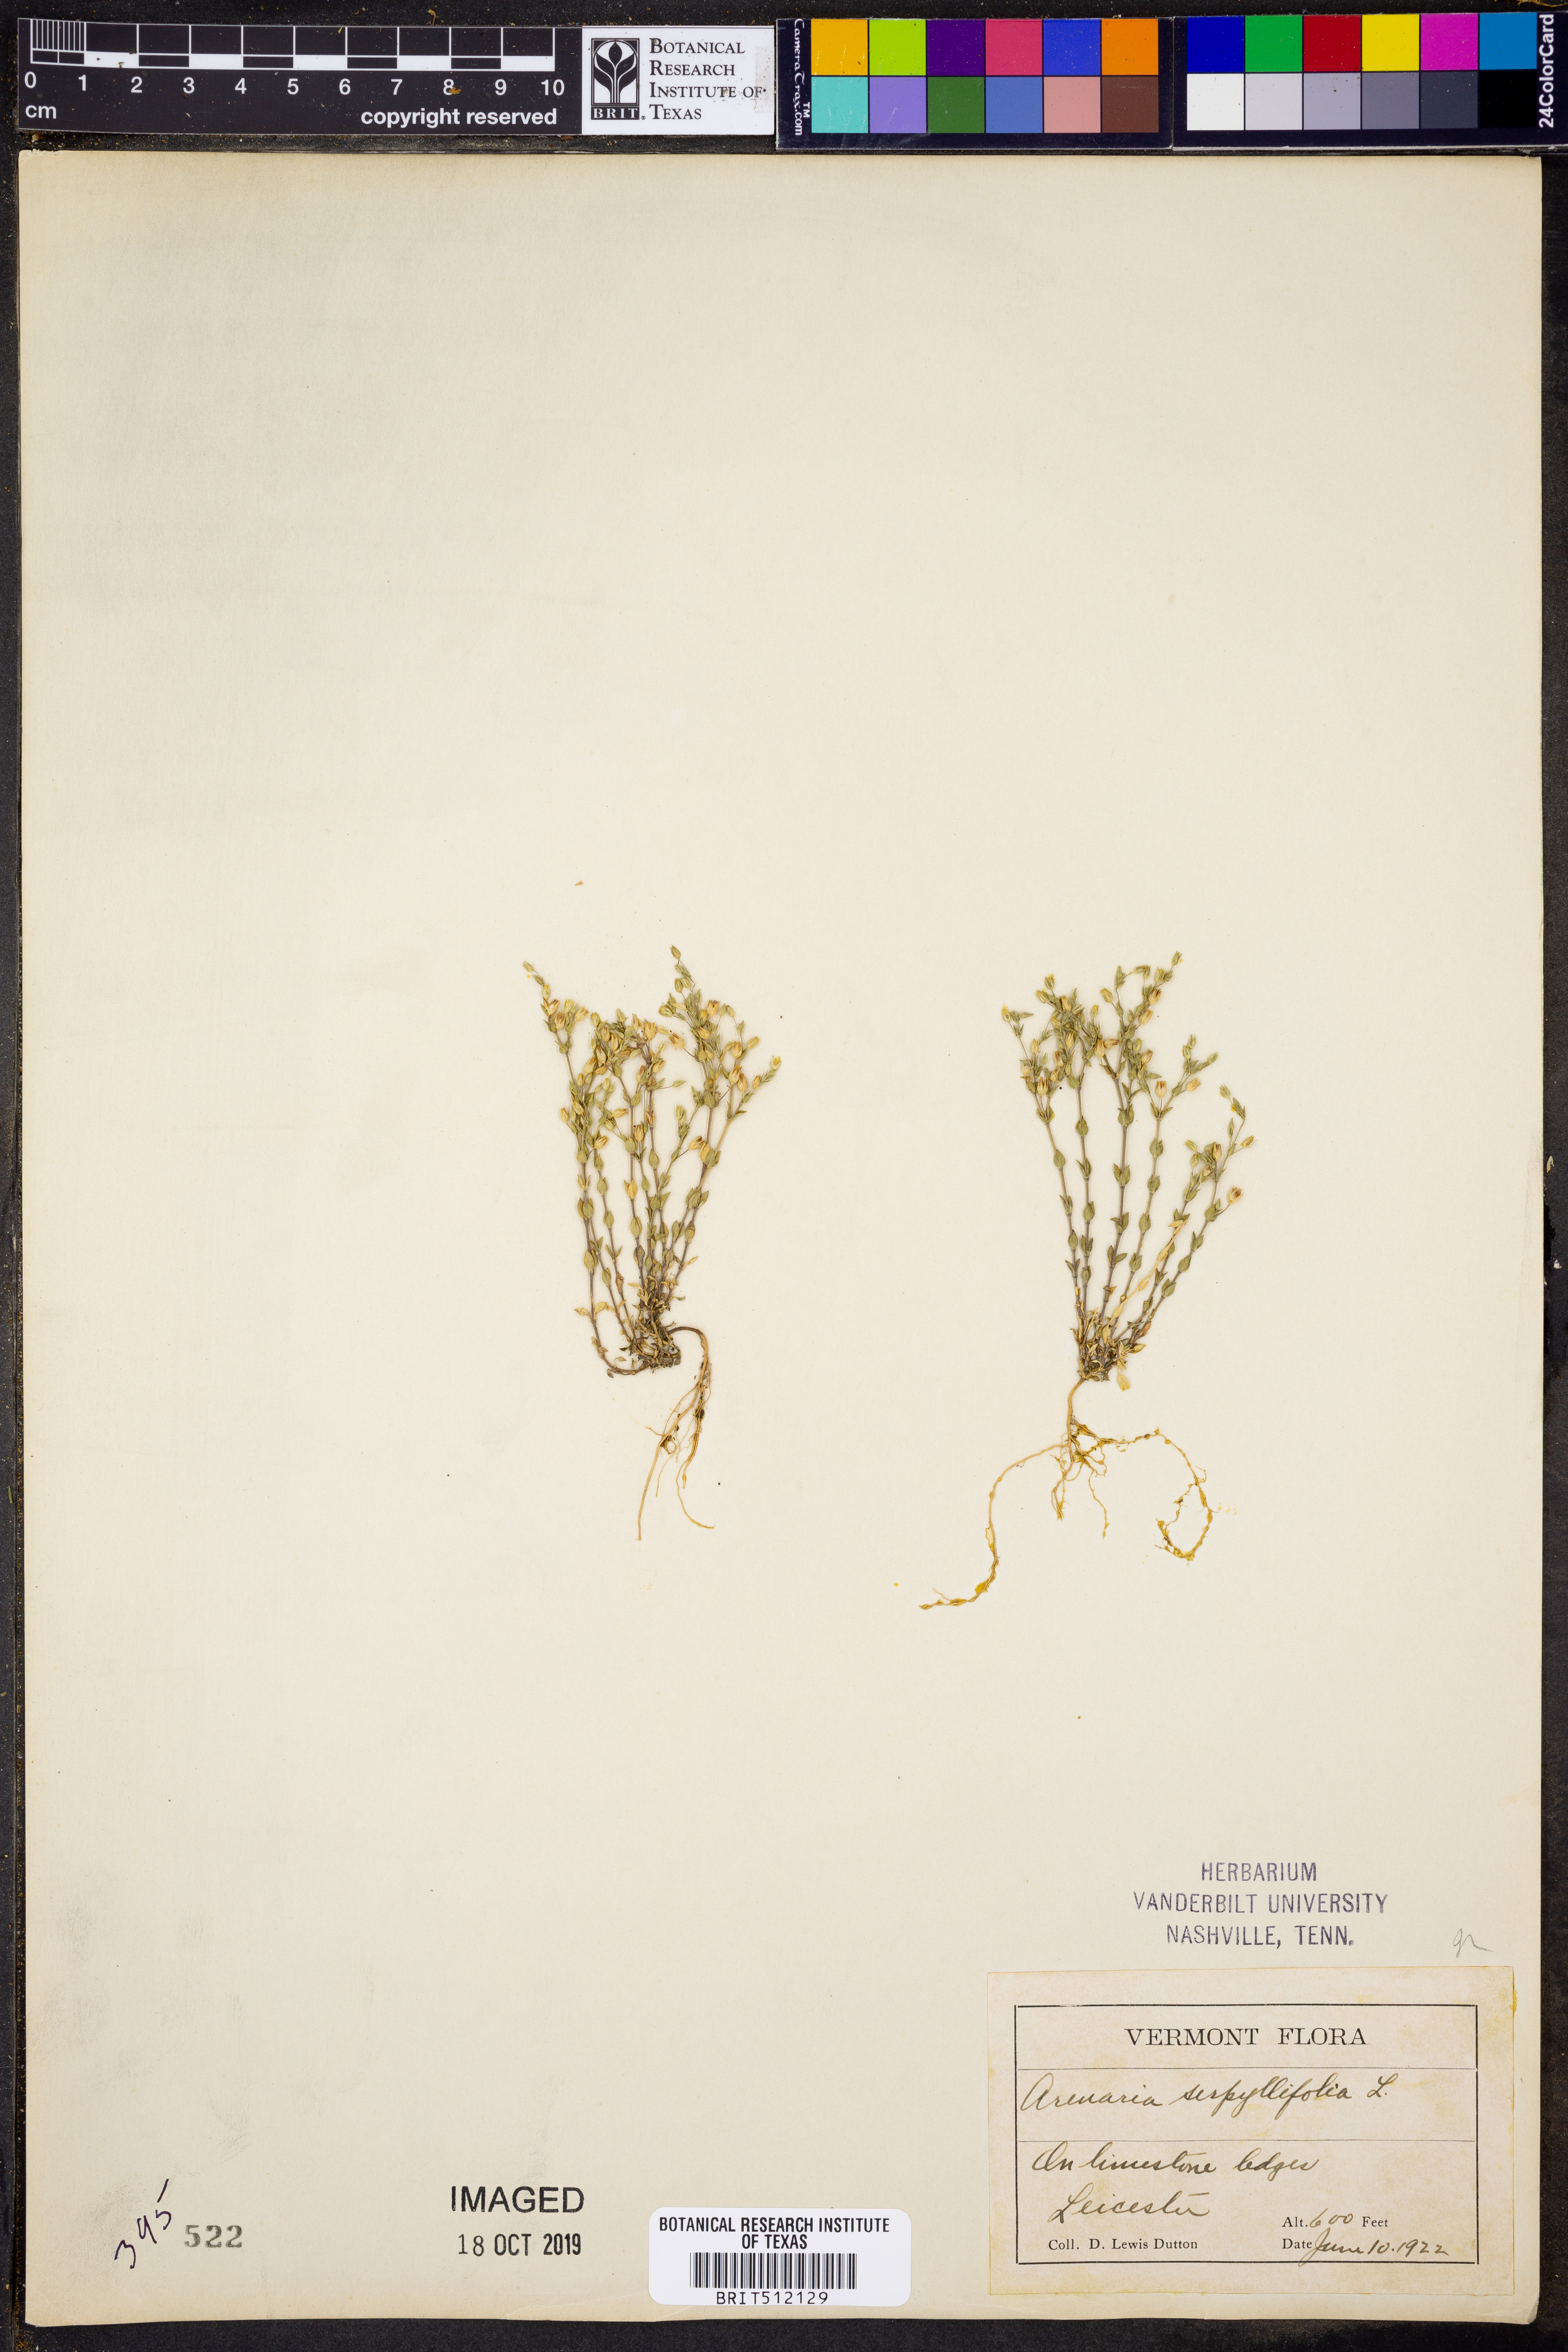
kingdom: Plantae
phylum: Tracheophyta
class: Magnoliopsida
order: Caryophyllales
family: Caryophyllaceae
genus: Arenaria
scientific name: Arenaria serpyllifolia
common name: Thyme-leaved sandwort
